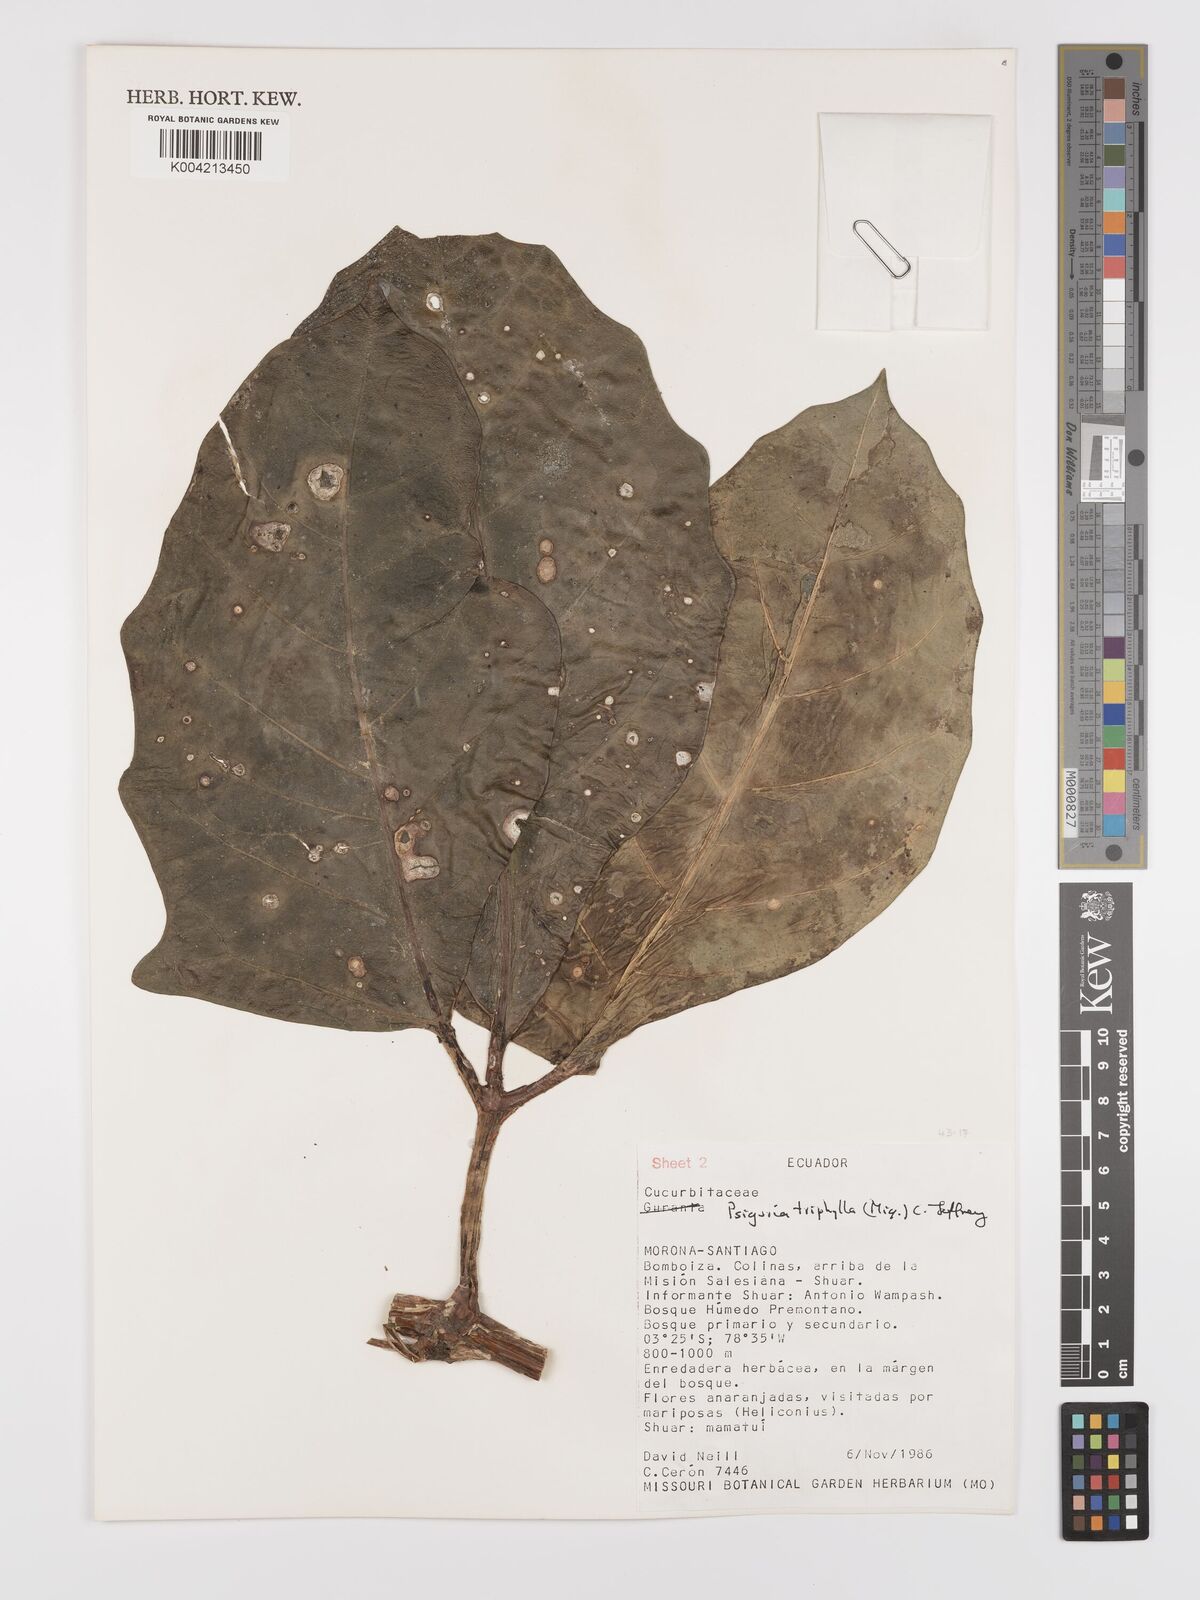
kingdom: Plantae
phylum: Tracheophyta
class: Magnoliopsida
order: Cucurbitales
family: Cucurbitaceae
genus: Psiguria
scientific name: Psiguria triphylla
